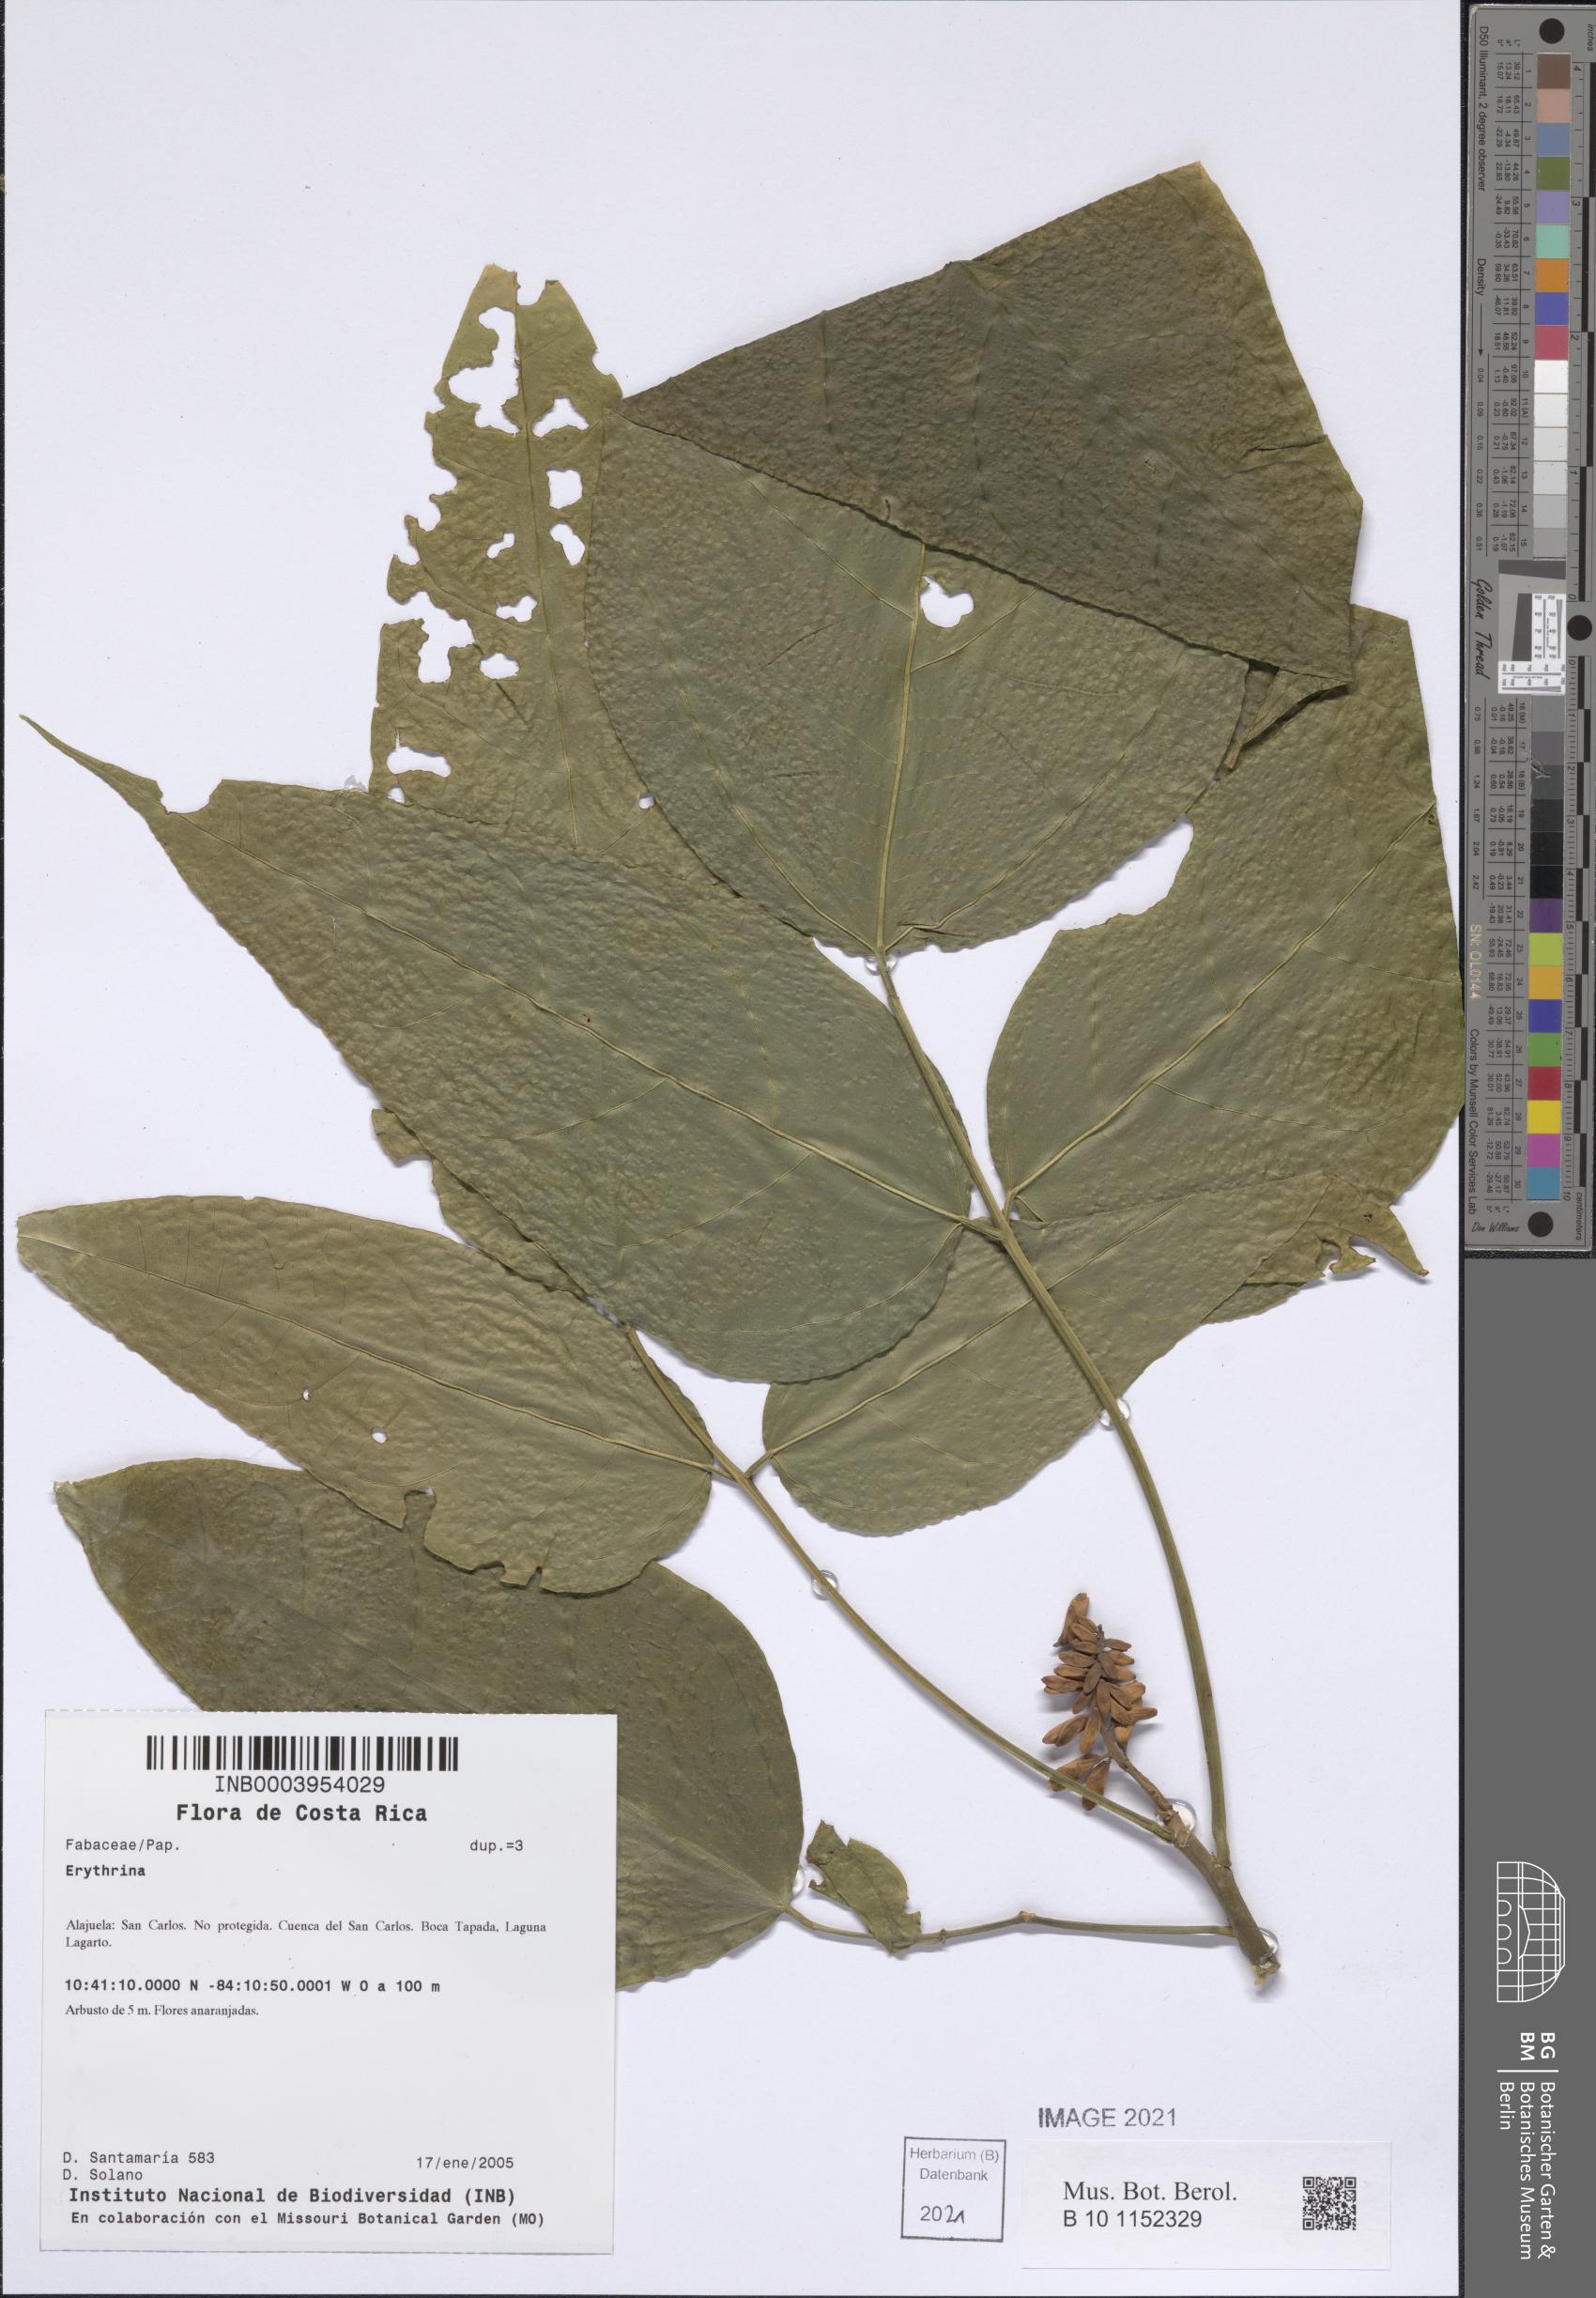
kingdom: Plantae
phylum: Tracheophyta
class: Magnoliopsida
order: Fabales
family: Fabaceae
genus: Erythrina
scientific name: Erythrina
